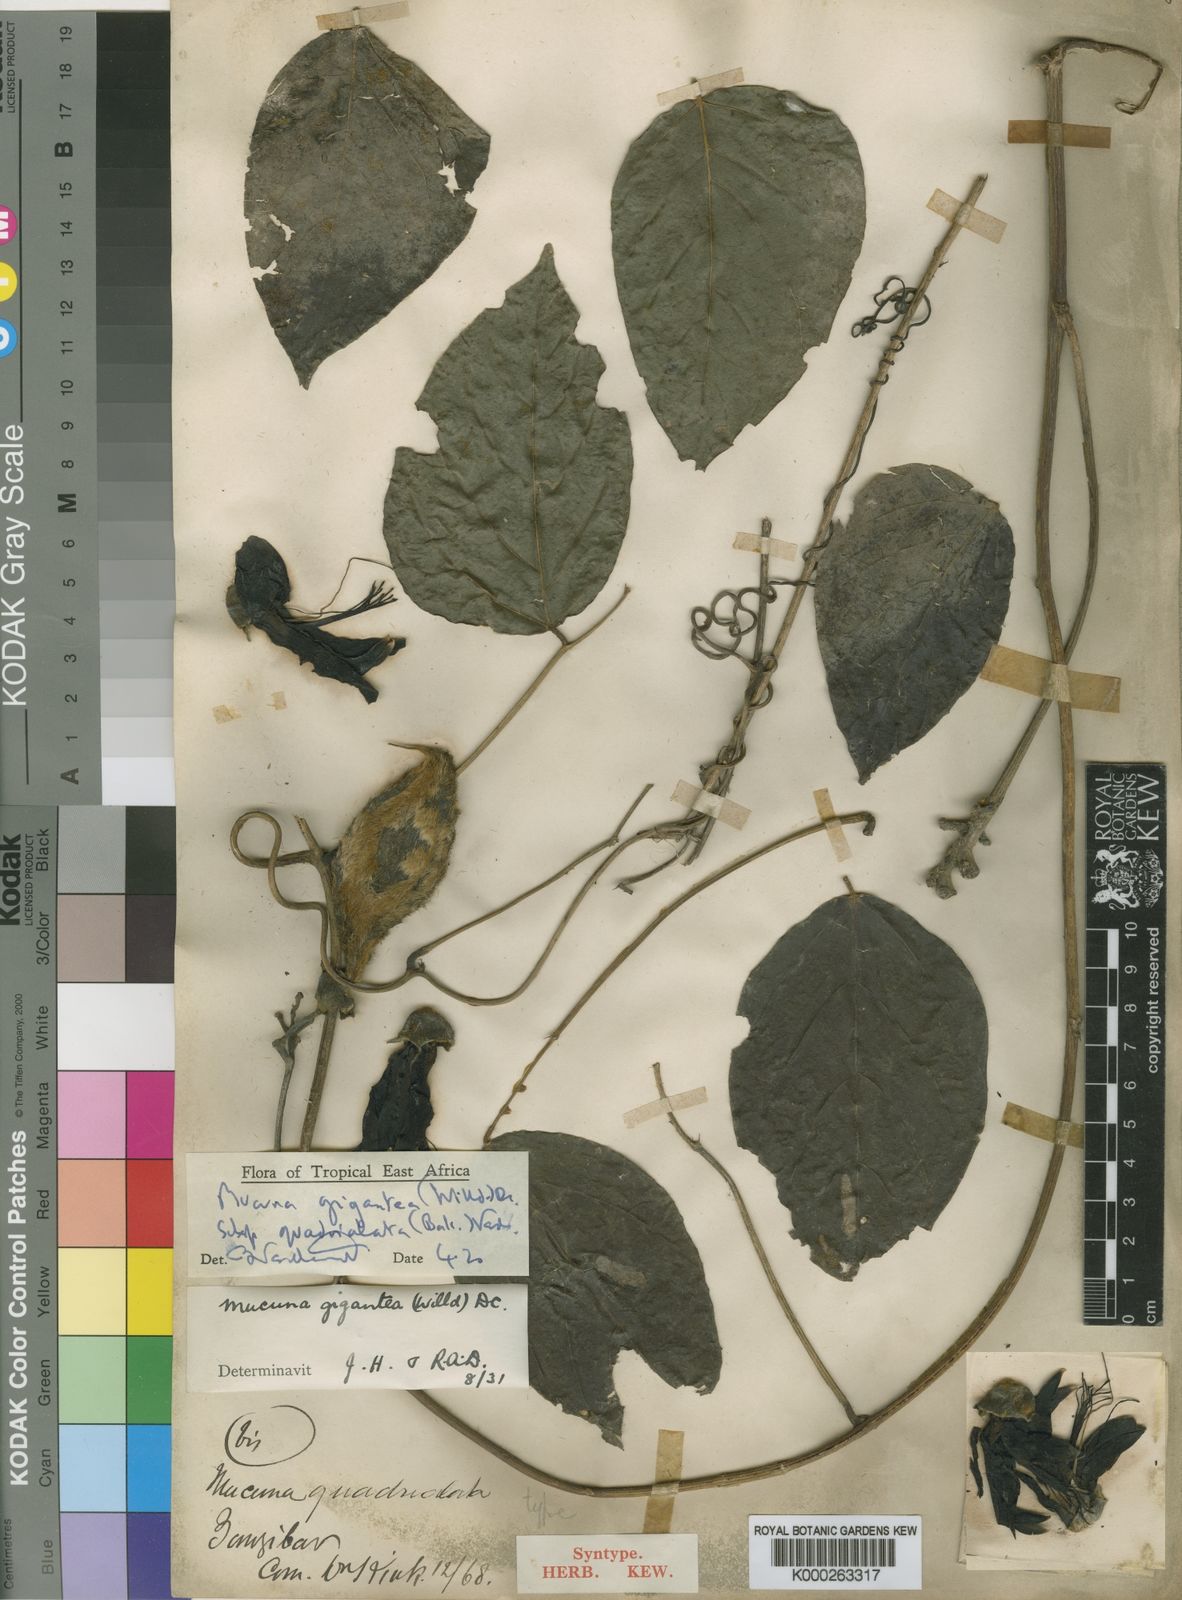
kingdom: Plantae
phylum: Tracheophyta
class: Magnoliopsida
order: Fabales
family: Fabaceae
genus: Mucuna
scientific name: Mucuna gigantea
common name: Black-bean
